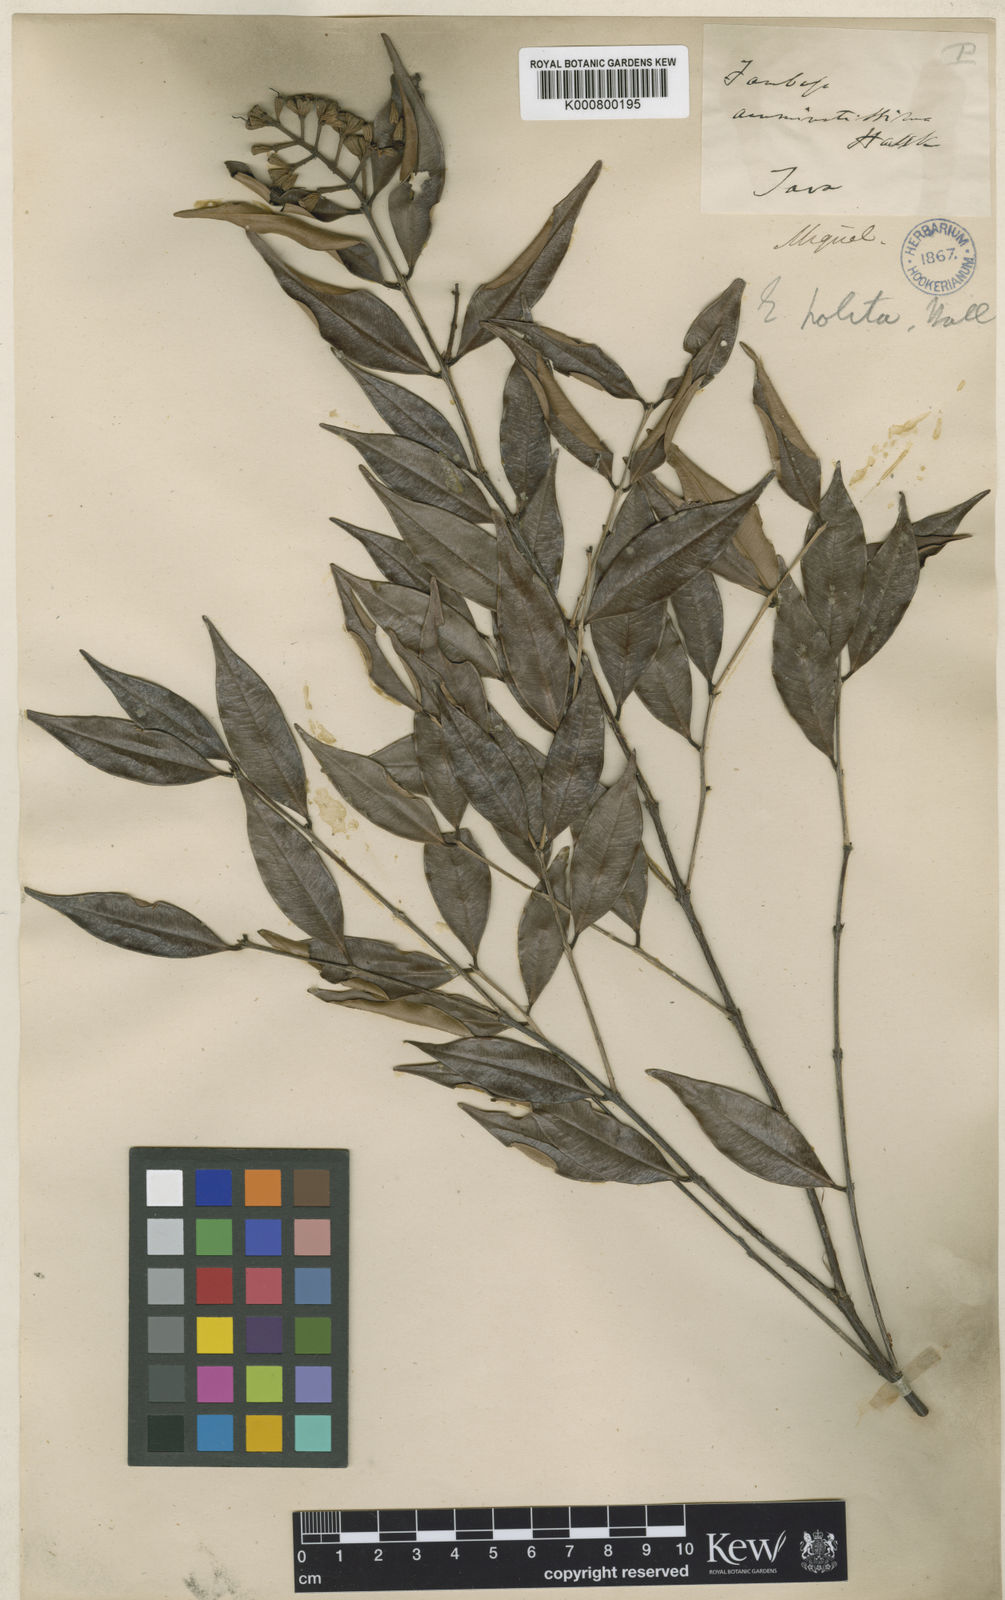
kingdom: Plantae
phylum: Tracheophyta
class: Magnoliopsida
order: Myrtales
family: Myrtaceae
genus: Syzygium
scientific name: Syzygium salignum
